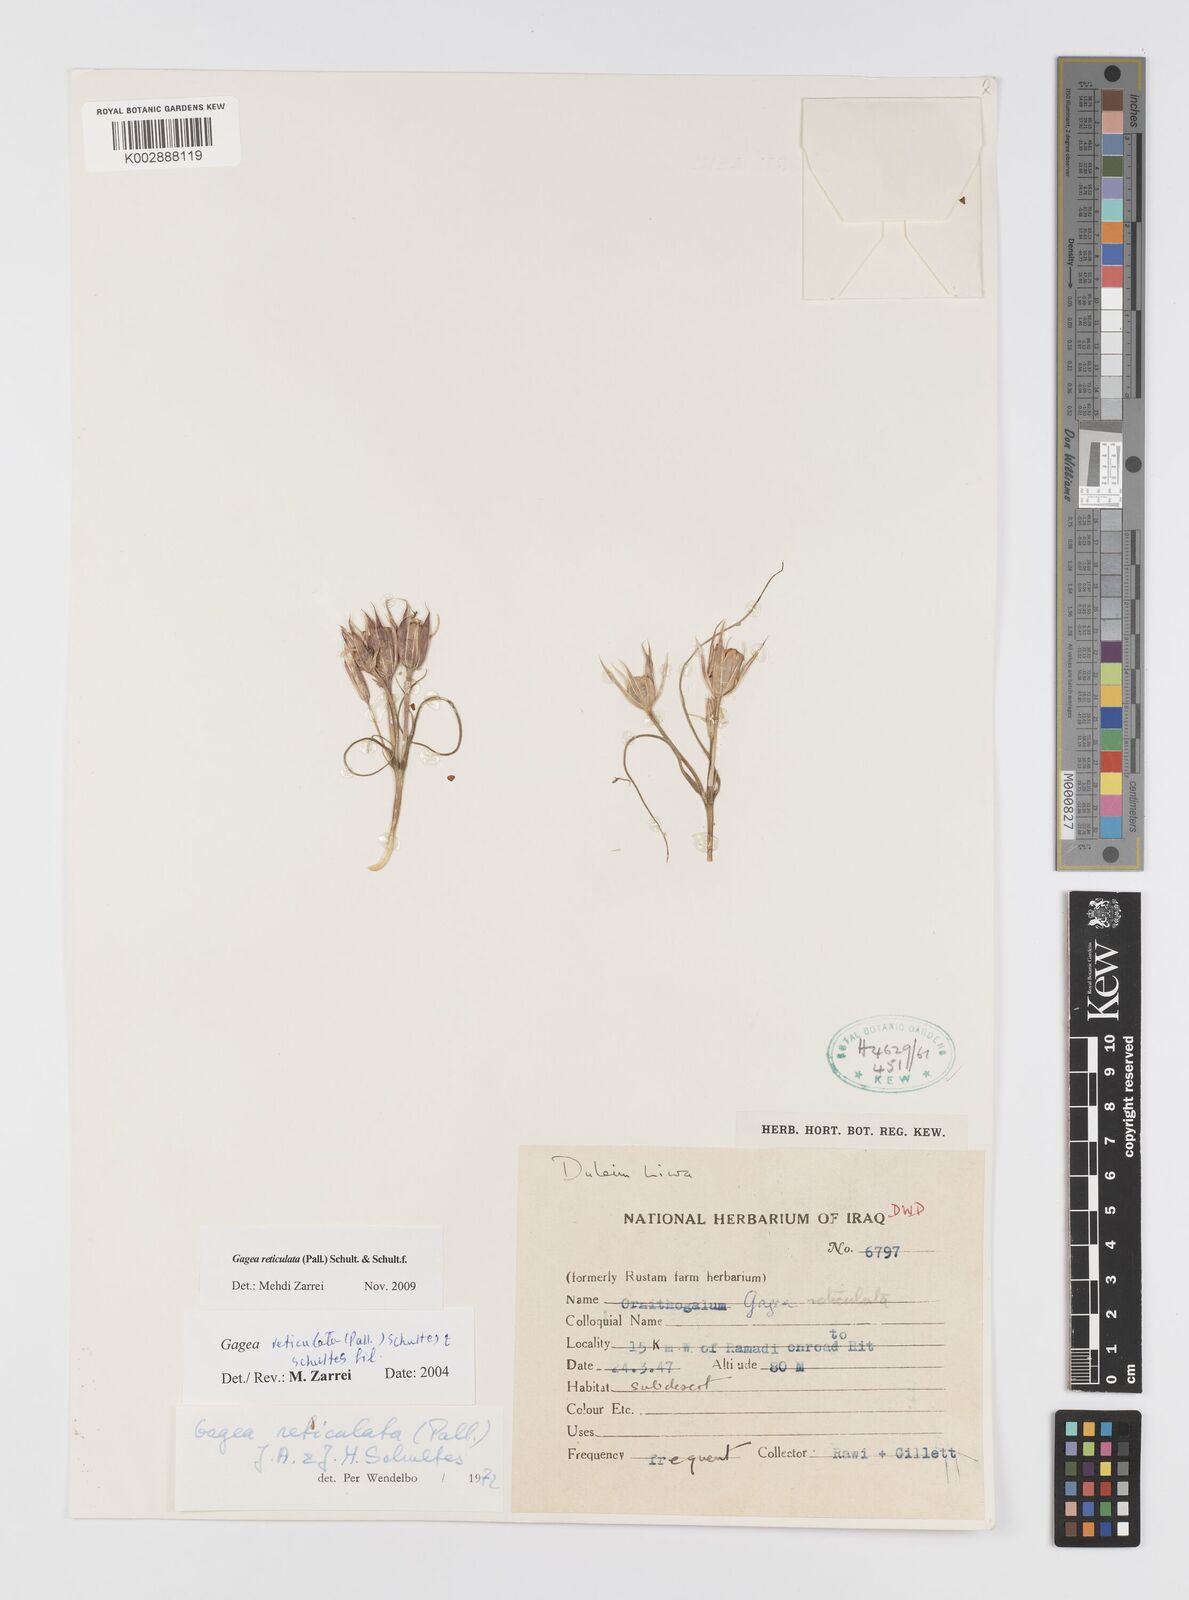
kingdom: Plantae
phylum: Tracheophyta
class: Liliopsida
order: Liliales
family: Liliaceae
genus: Gagea
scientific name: Gagea reticulata
